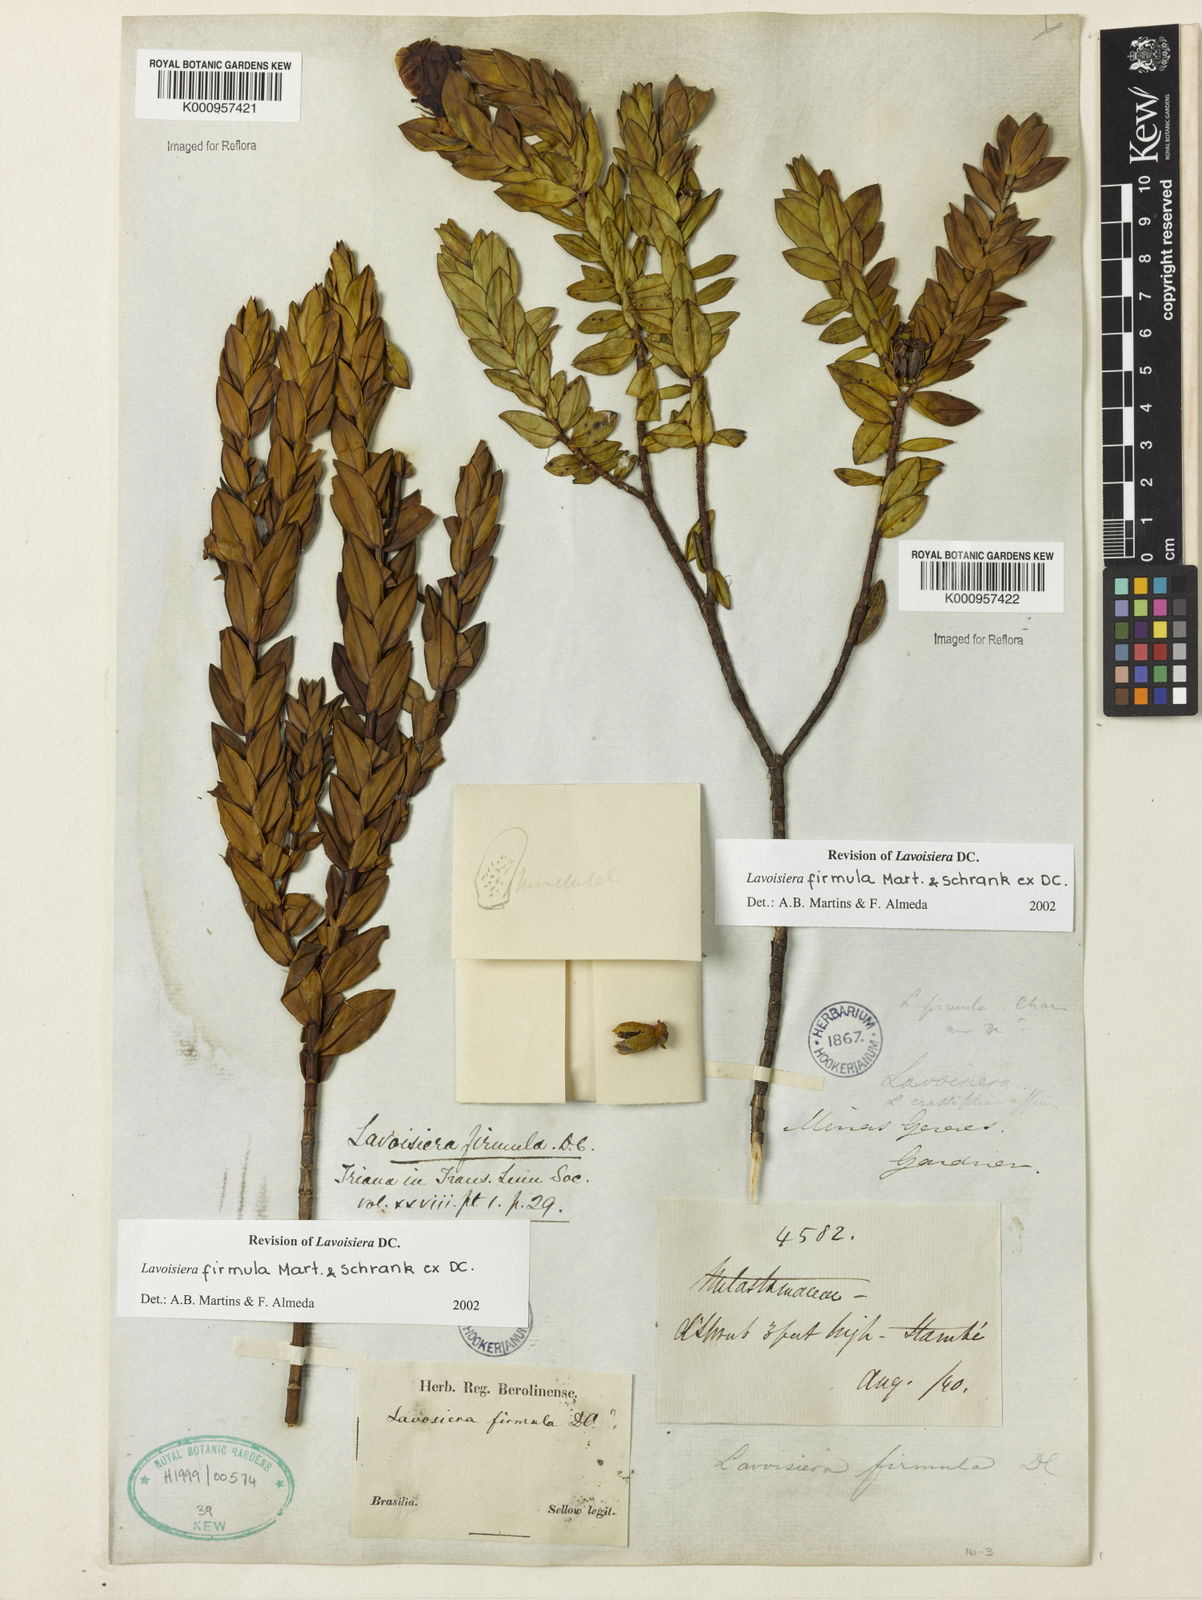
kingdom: Plantae
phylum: Tracheophyta
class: Magnoliopsida
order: Myrtales
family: Melastomataceae
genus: Microlicia
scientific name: Microlicia firmula
